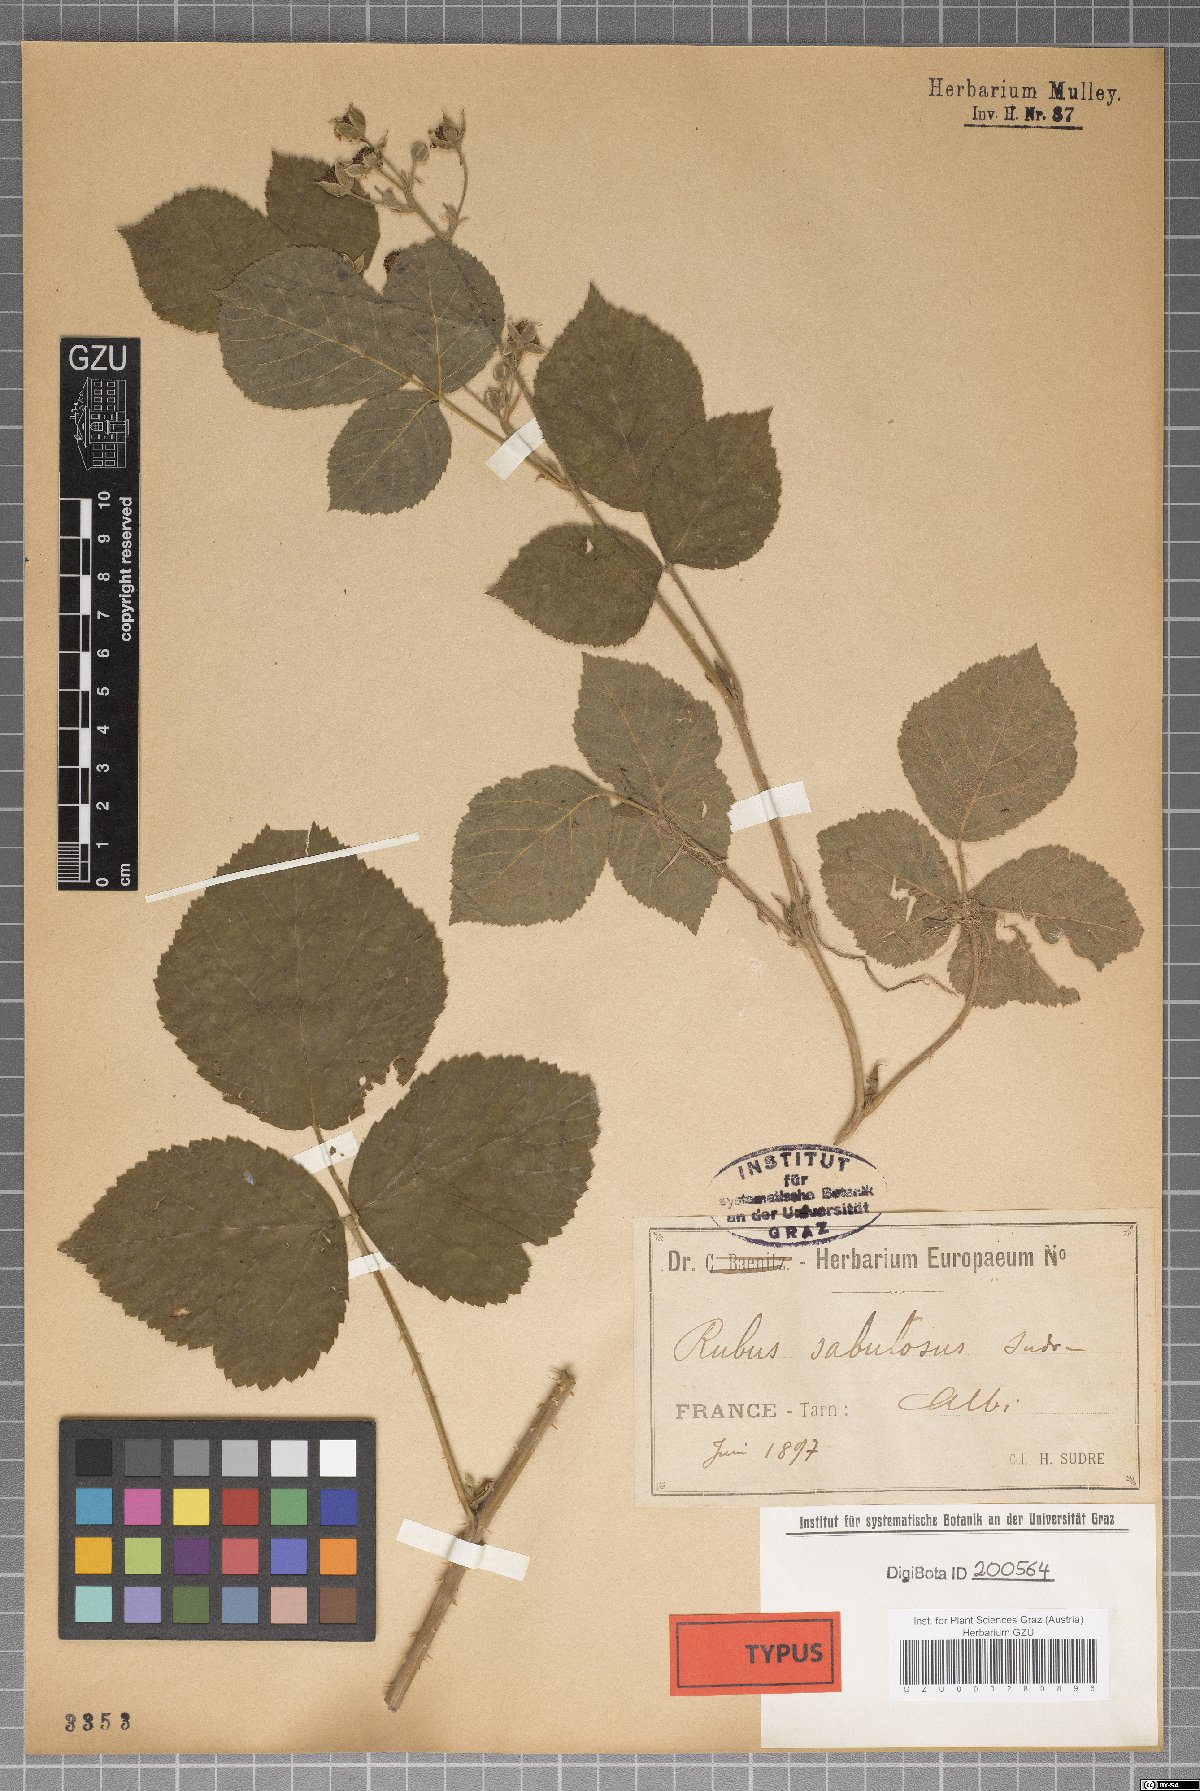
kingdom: Plantae
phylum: Tracheophyta
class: Magnoliopsida
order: Rosales
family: Rosaceae
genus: Rubus
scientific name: Rubus caesius
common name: Dewberry
